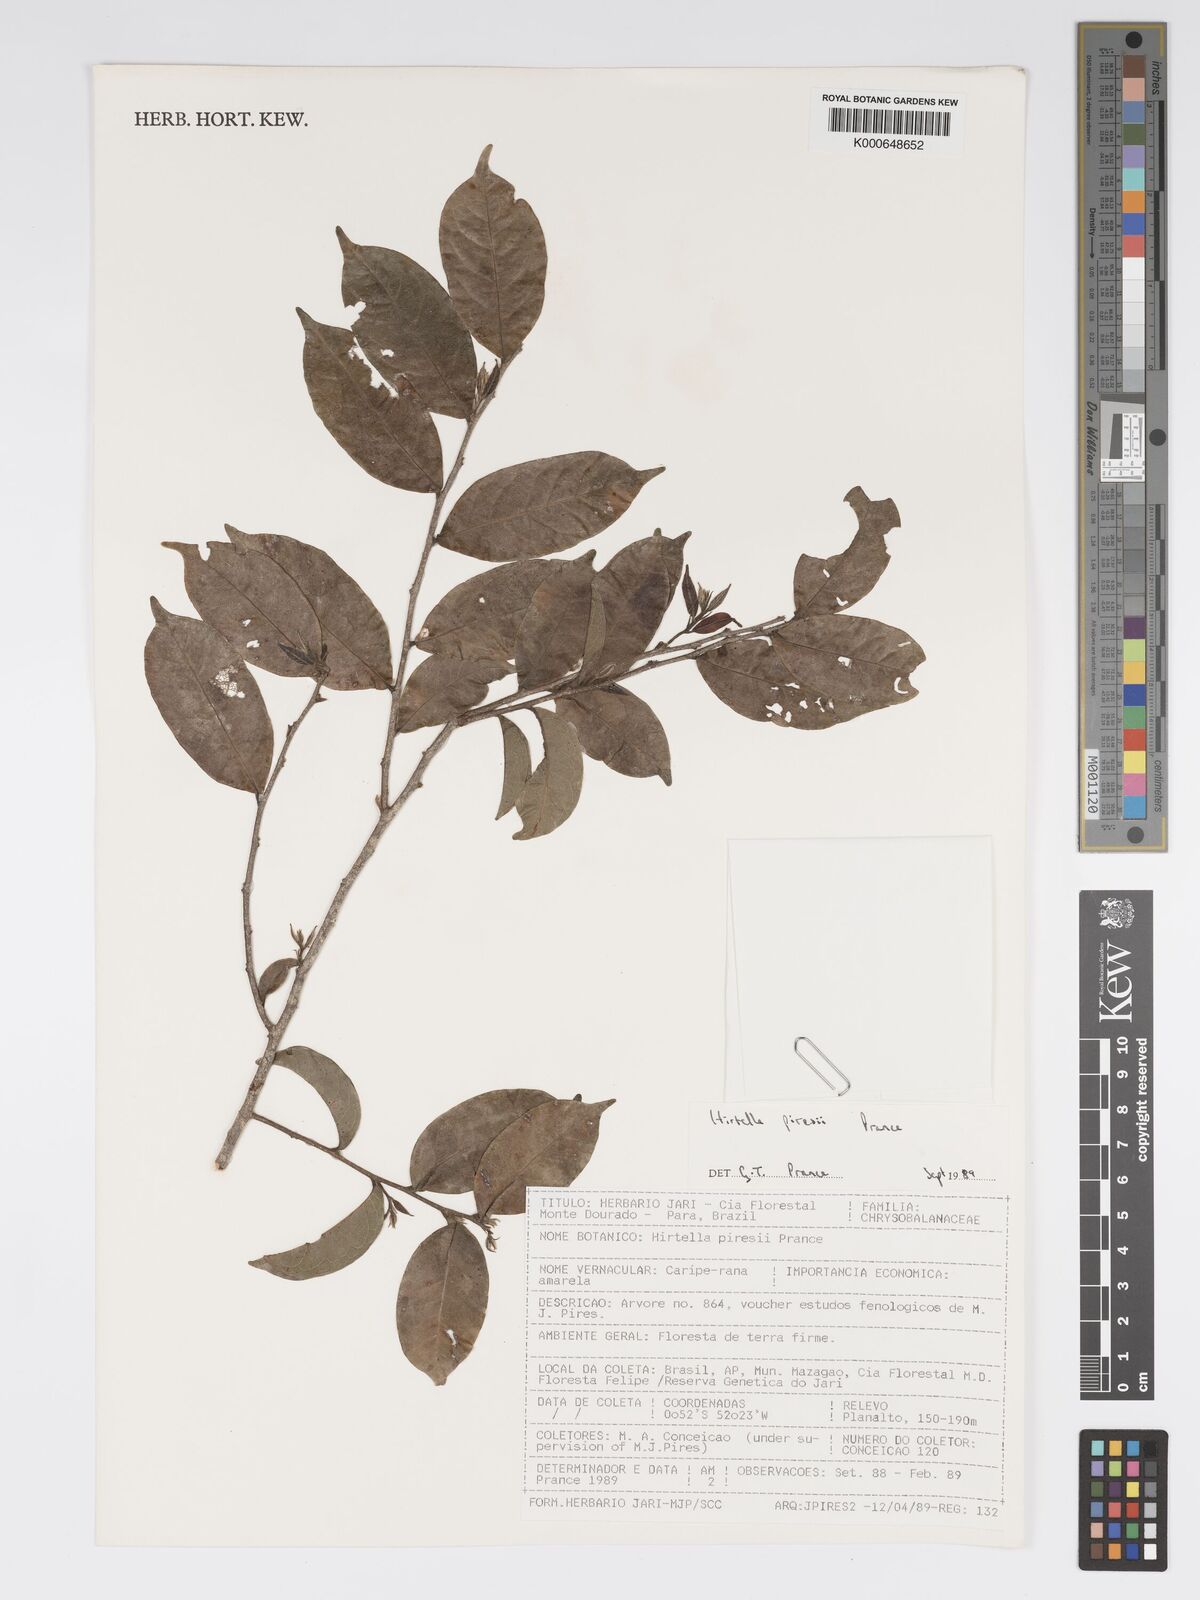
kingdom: Plantae
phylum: Tracheophyta
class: Magnoliopsida
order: Malpighiales
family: Chrysobalanaceae
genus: Hirtella
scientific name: Hirtella piresii
